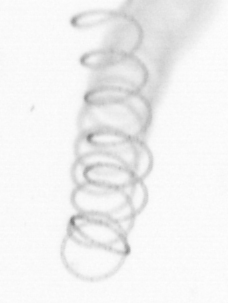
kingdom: Chromista
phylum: Ochrophyta
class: Bacillariophyceae
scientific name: Bacillariophyceae
